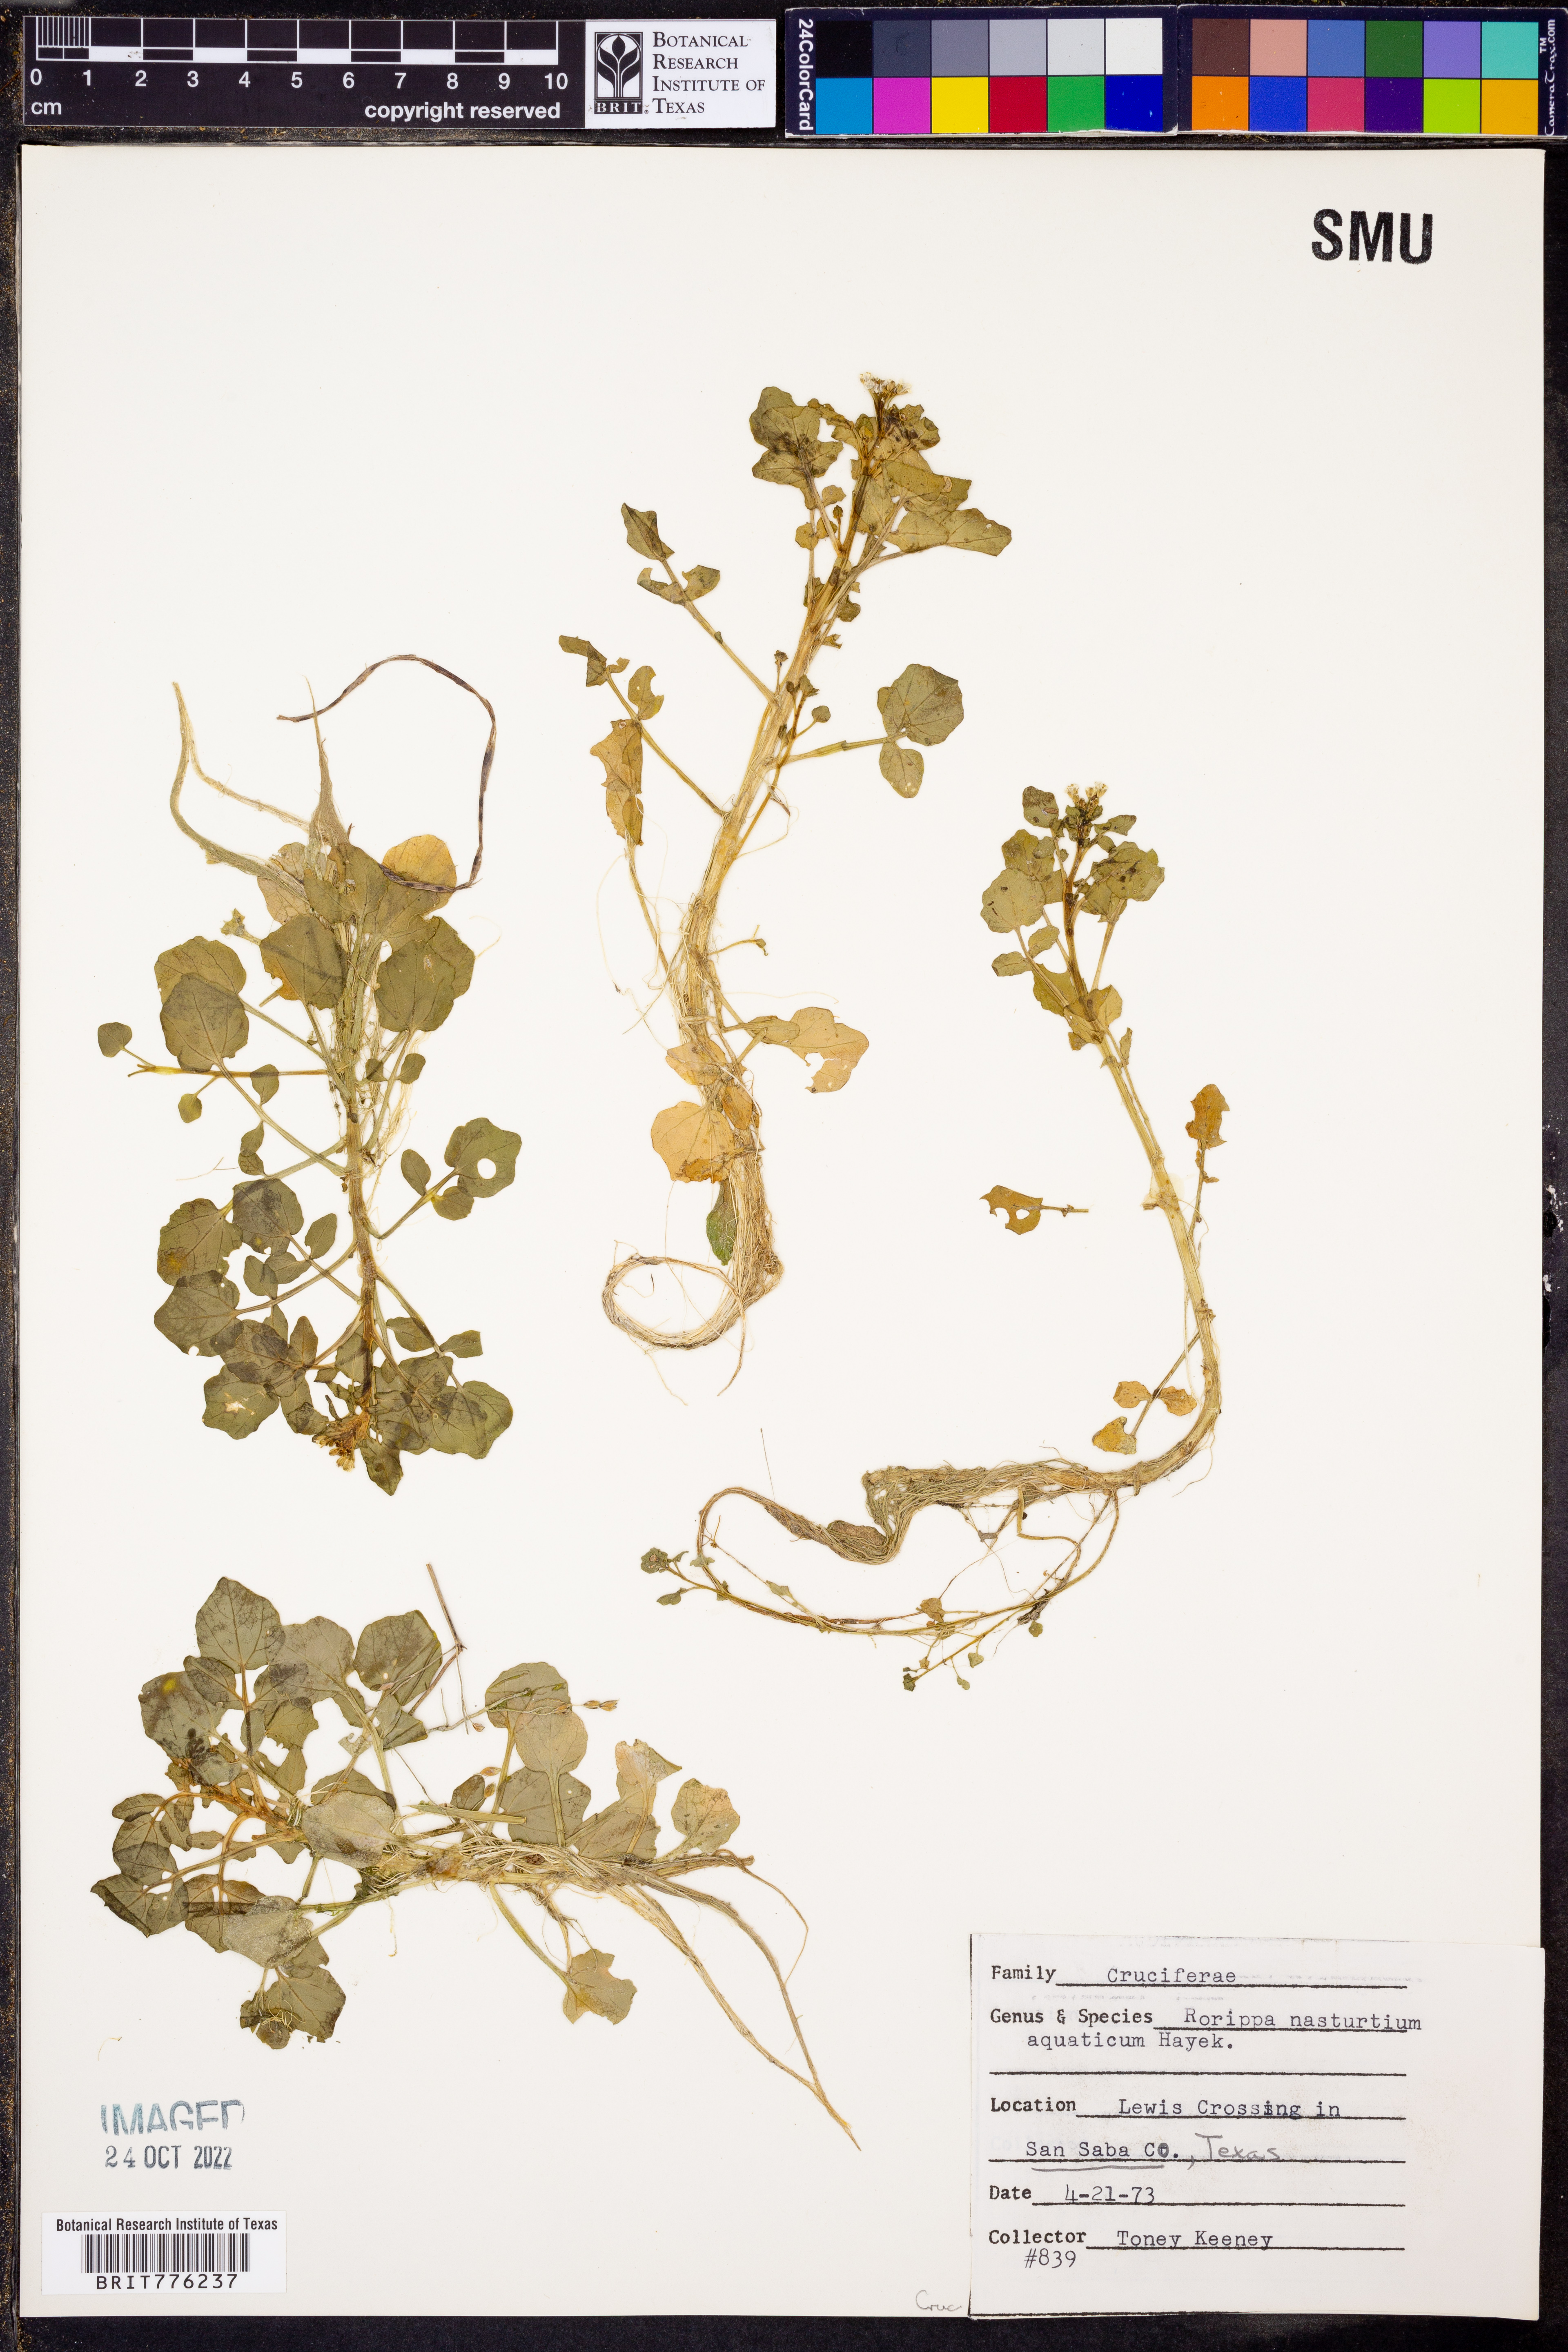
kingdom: Plantae
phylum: Tracheophyta
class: Magnoliopsida
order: Brassicales
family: Brassicaceae
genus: Nasturtium
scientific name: Nasturtium officinale
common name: Watercress
